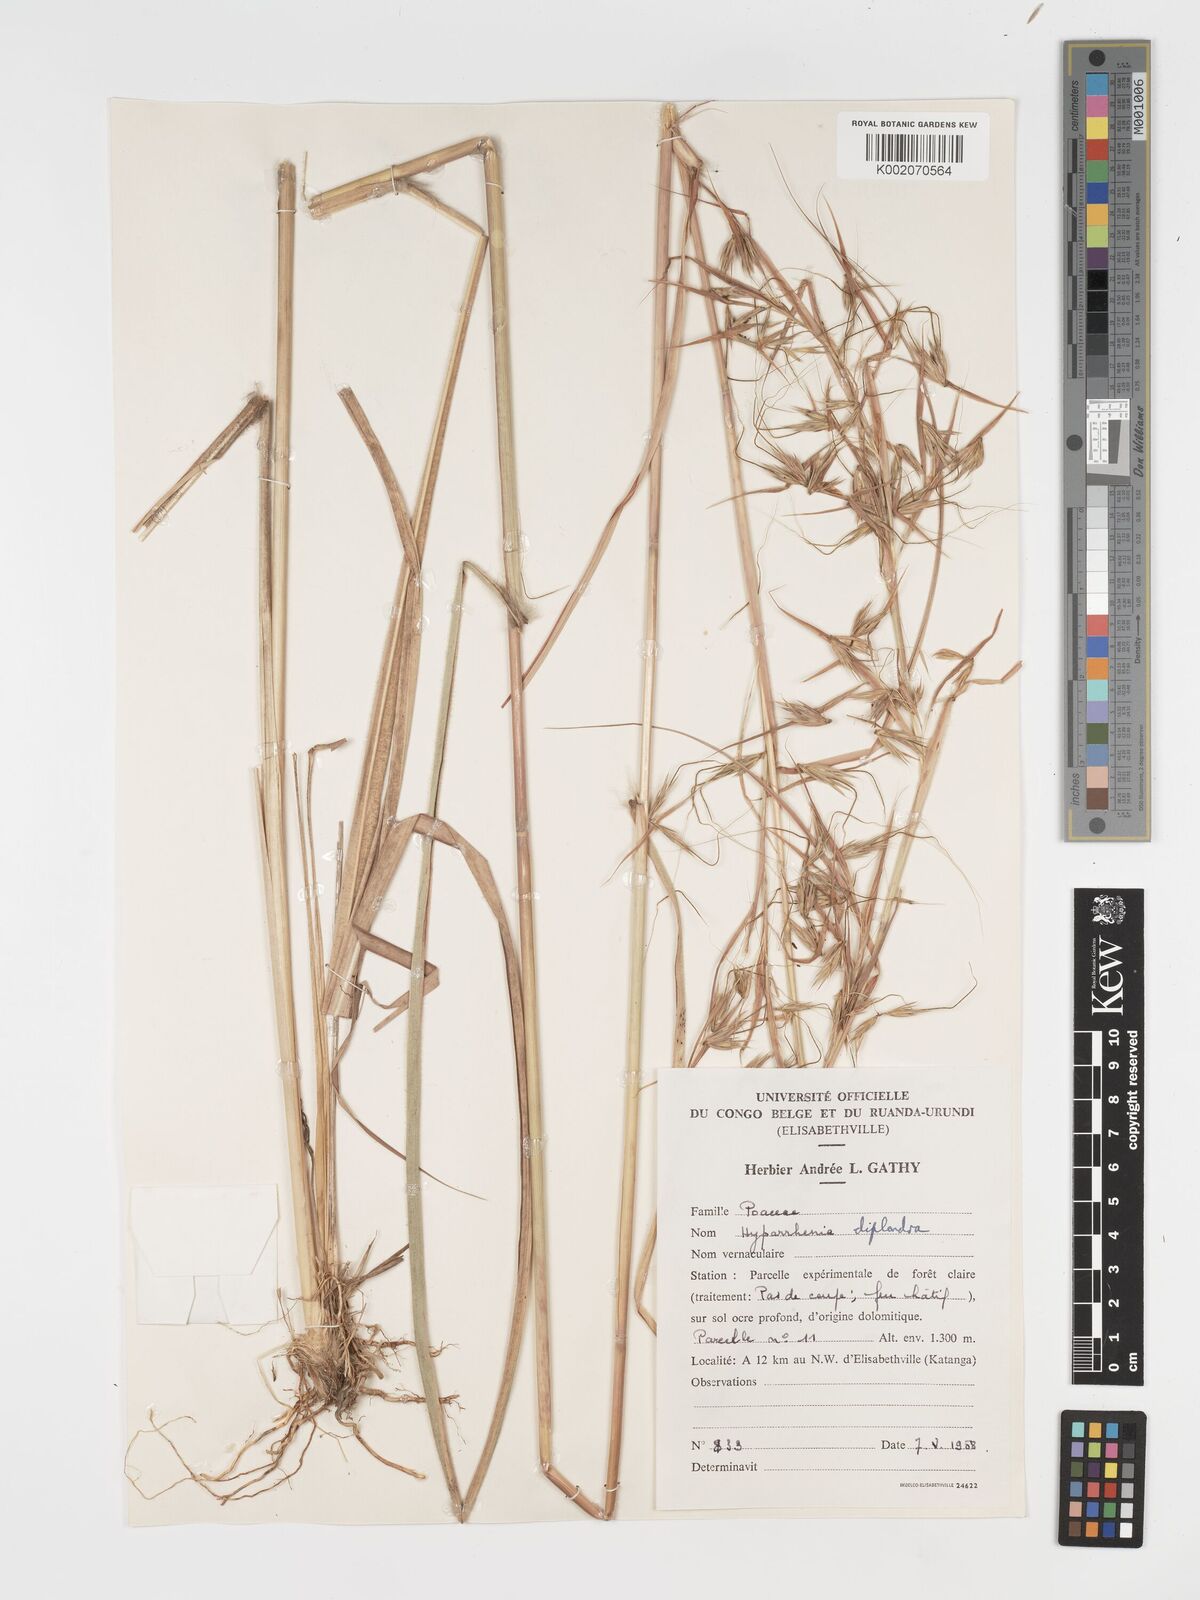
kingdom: Plantae
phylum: Tracheophyta
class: Liliopsida
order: Poales
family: Poaceae
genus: Hyparrhenia
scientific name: Hyparrhenia diplandra
